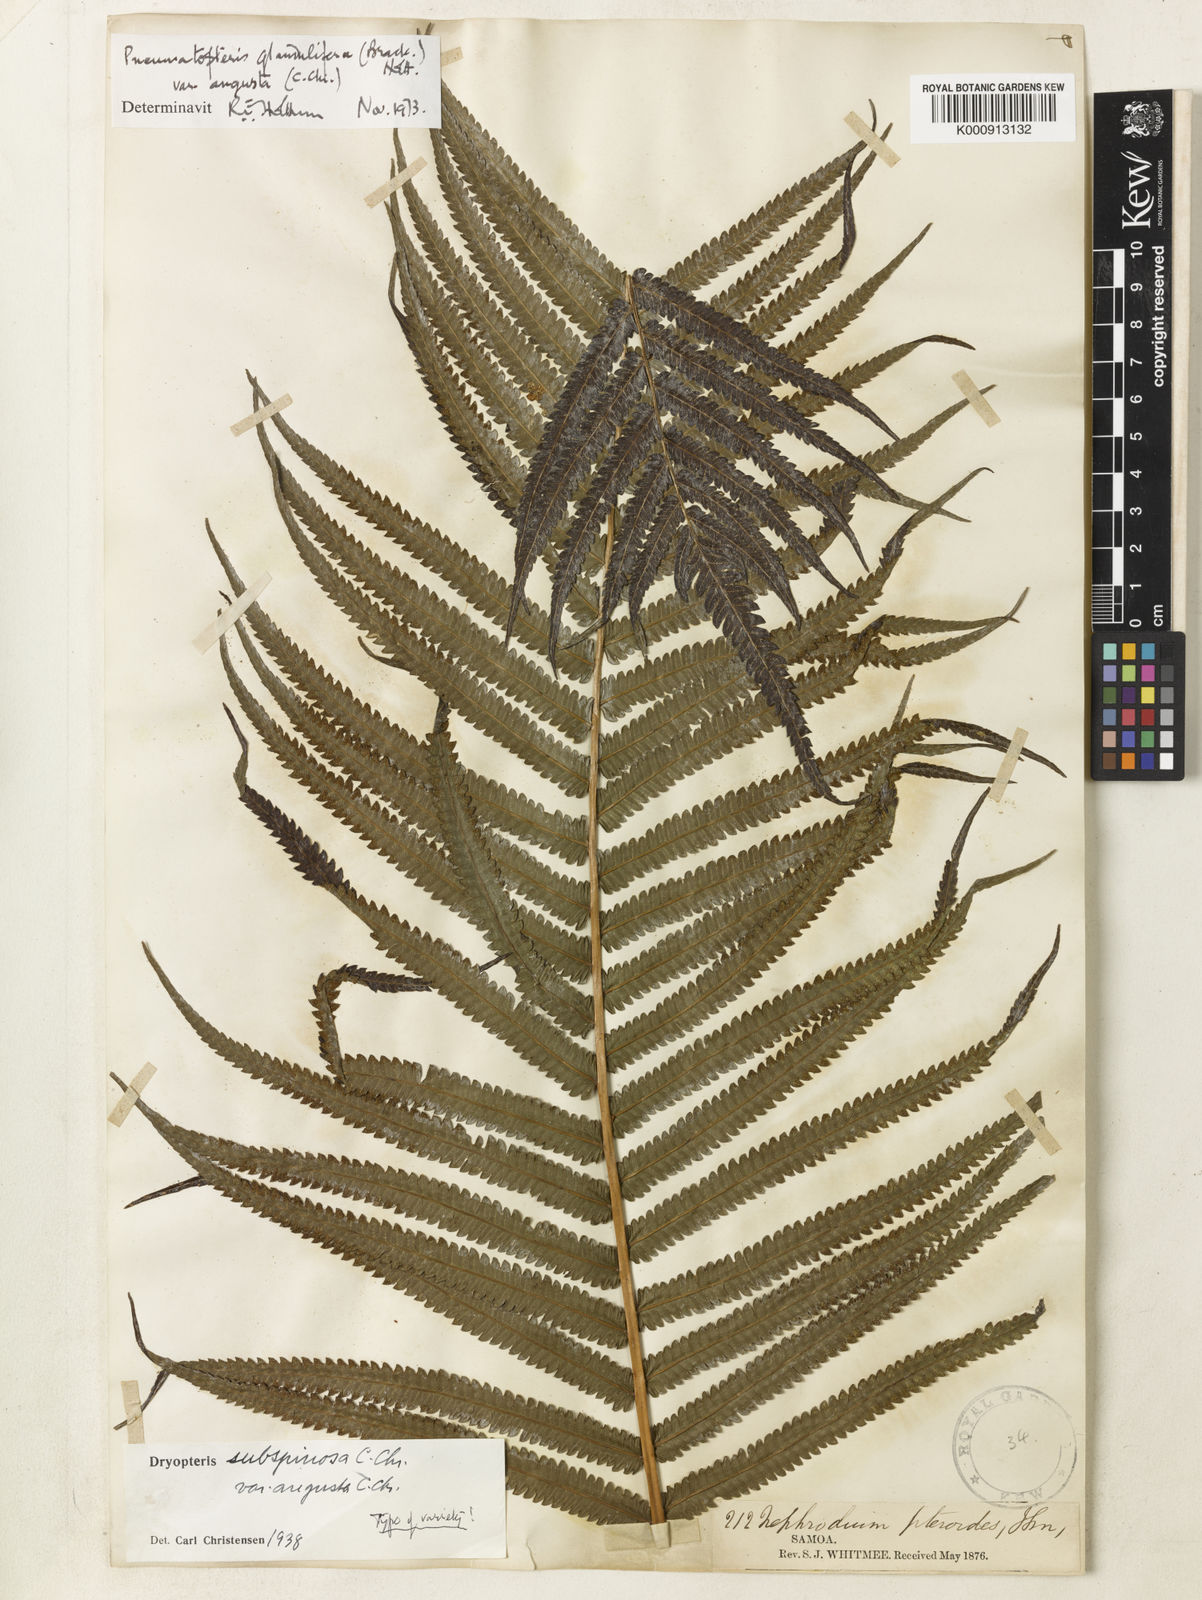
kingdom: Plantae
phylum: Tracheophyta
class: Polypodiopsida
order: Polypodiales
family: Thelypteridaceae
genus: Pneumatopteris
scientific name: Pneumatopteris glandulifera
